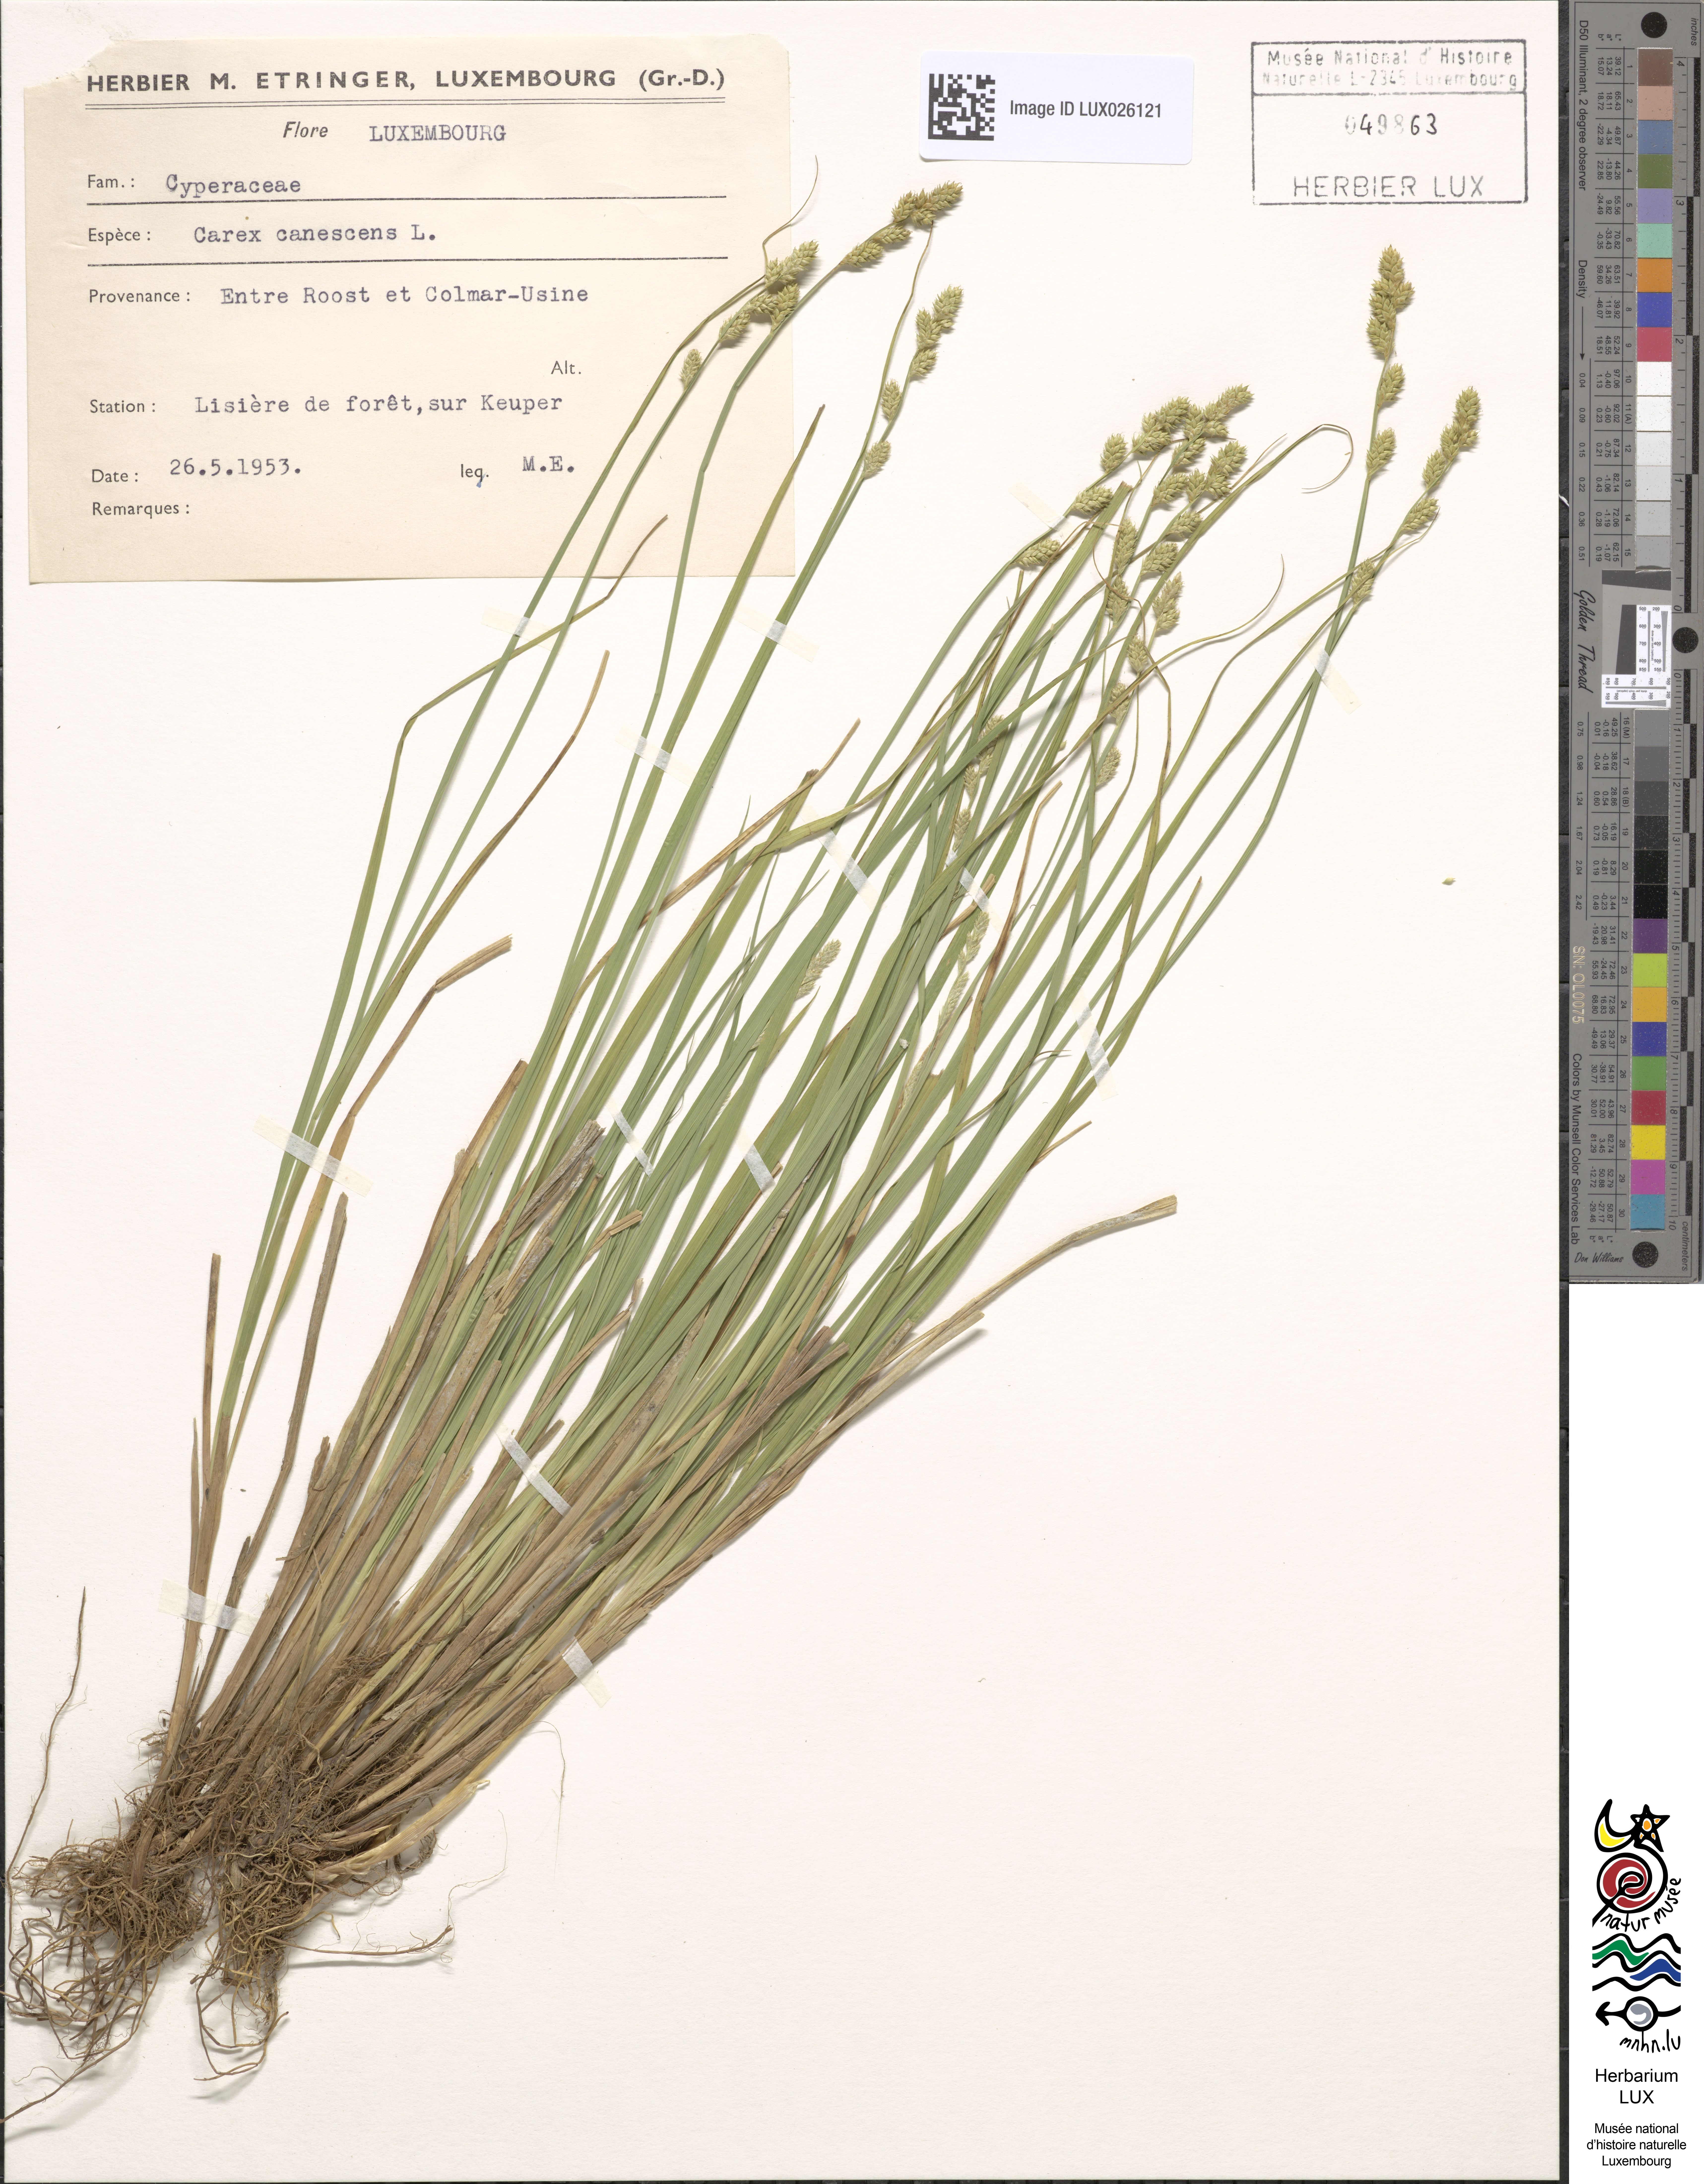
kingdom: Plantae
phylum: Tracheophyta
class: Liliopsida
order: Poales
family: Cyperaceae
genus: Carex
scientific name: Carex canescens
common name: White sedge
